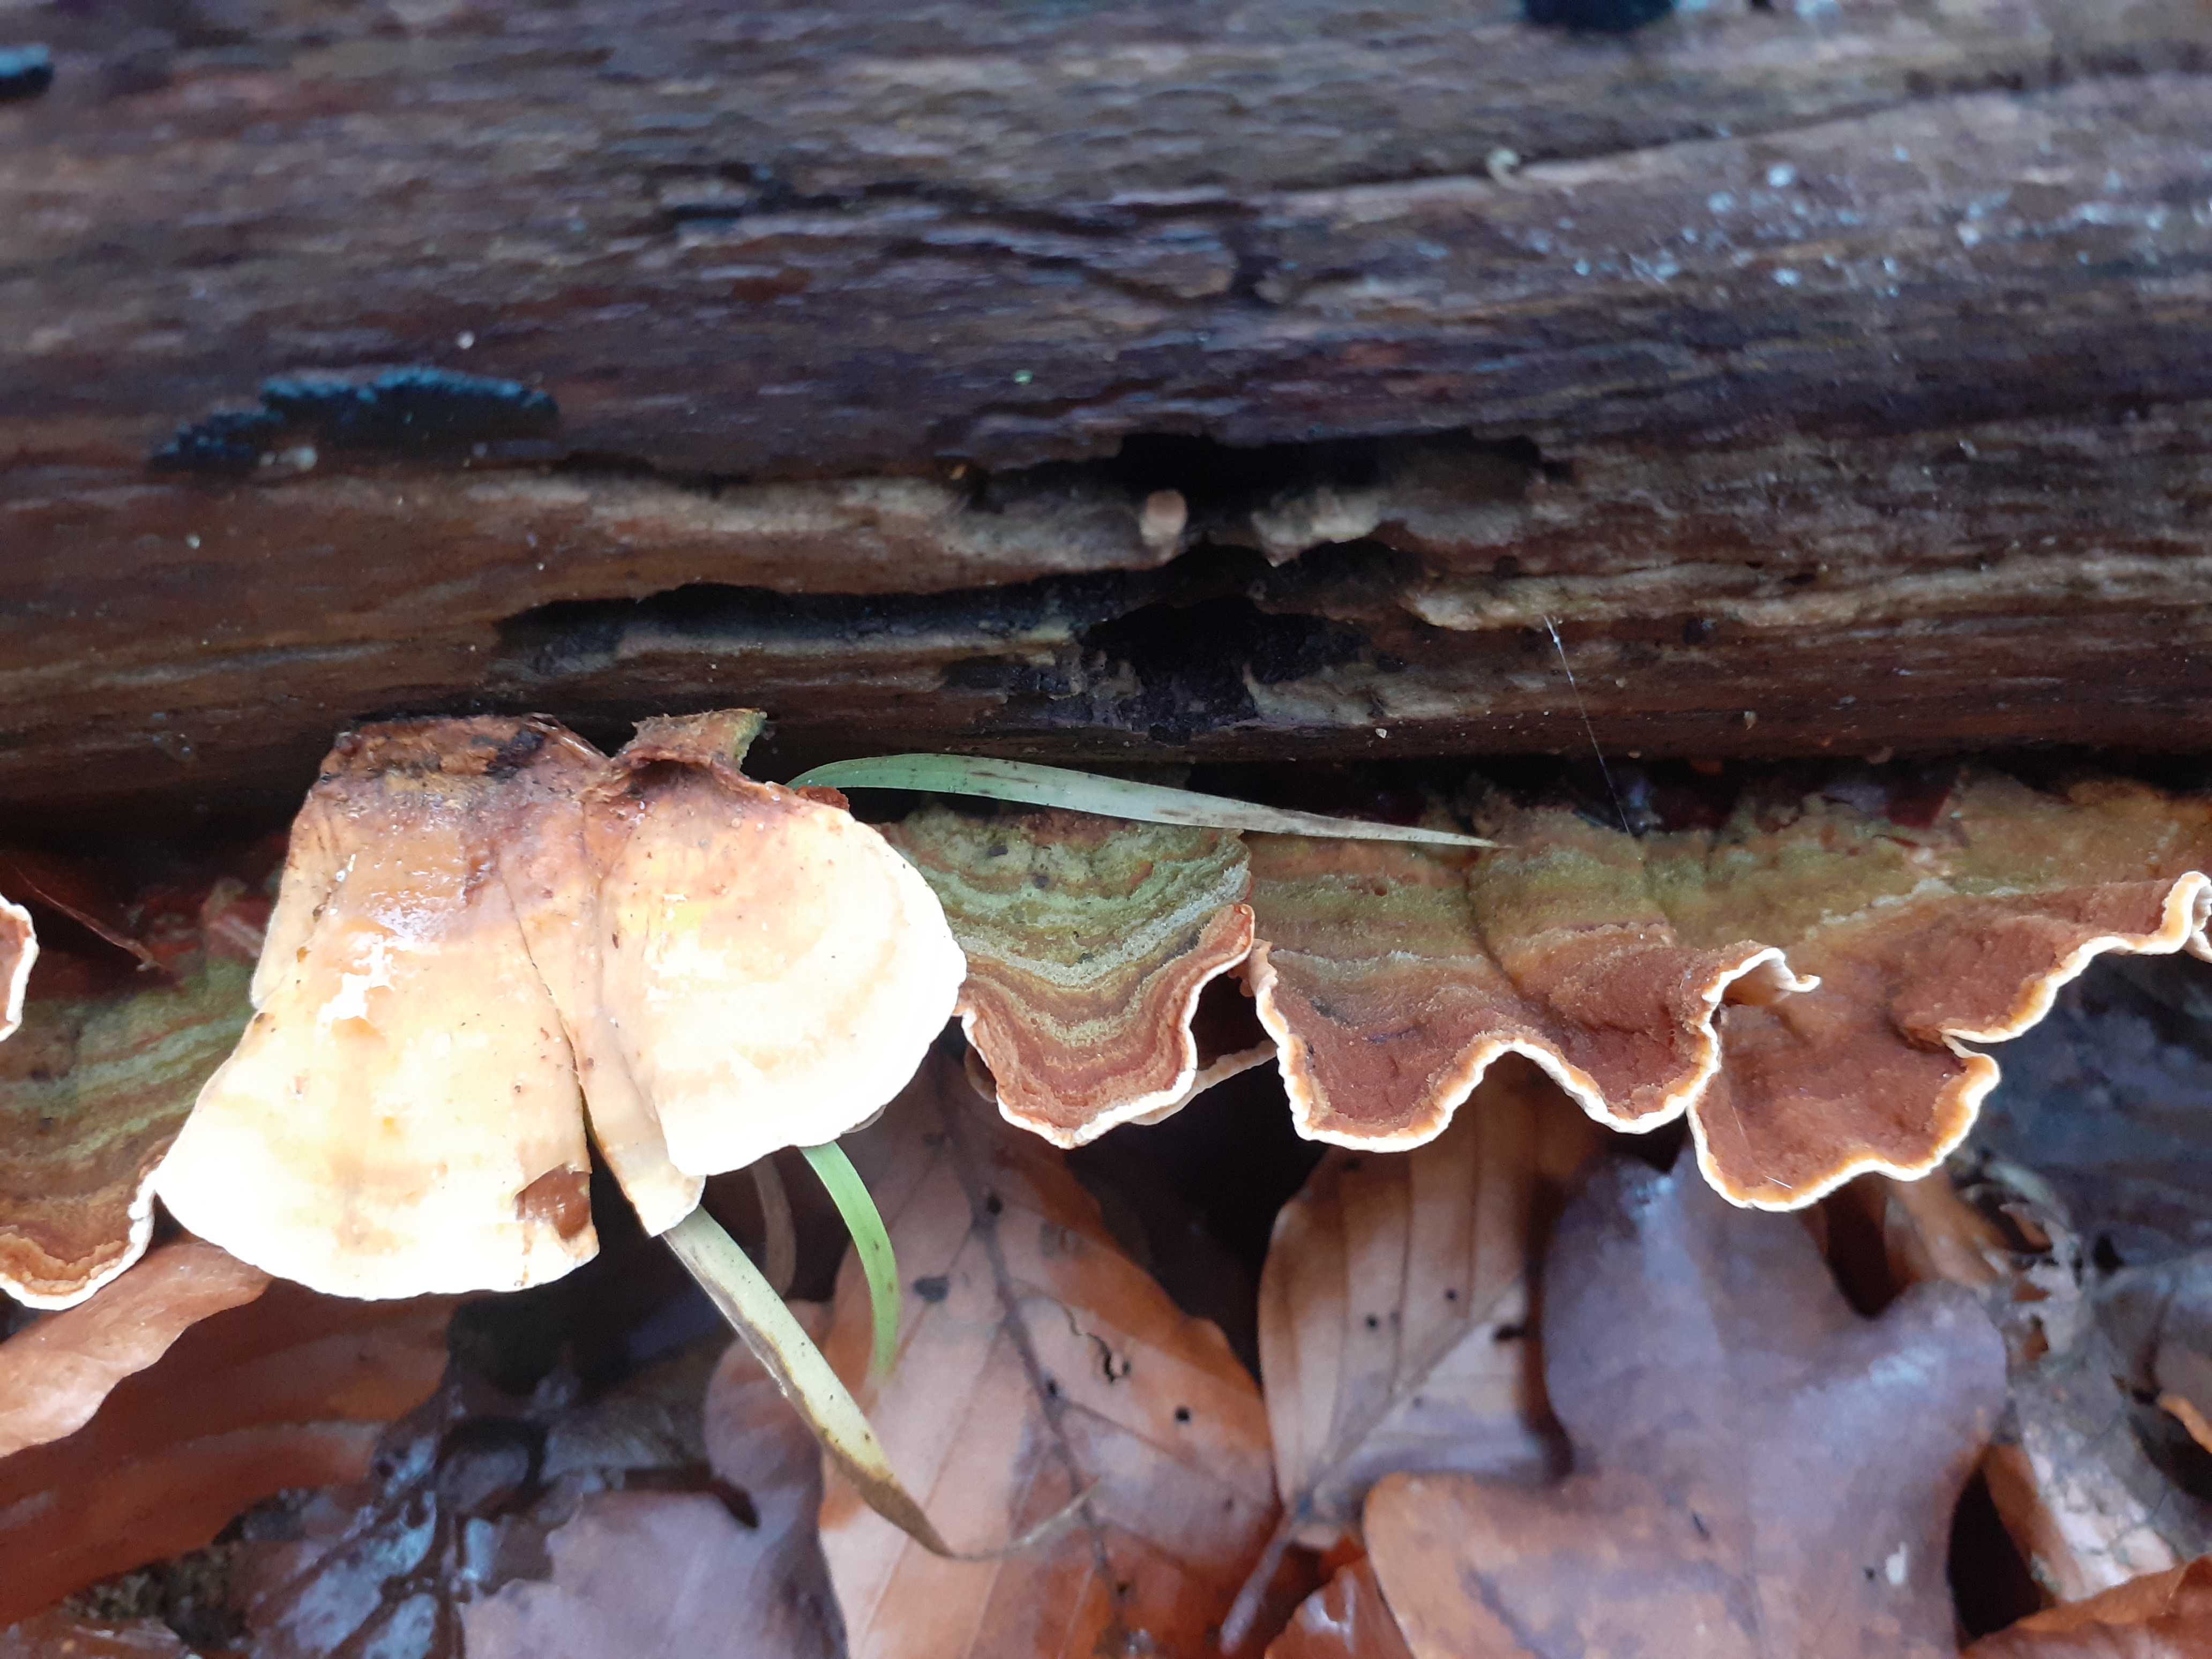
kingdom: Fungi
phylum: Basidiomycota
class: Agaricomycetes
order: Russulales
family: Stereaceae
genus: Stereum
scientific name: Stereum subtomentosum
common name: smuk lædersvamp
